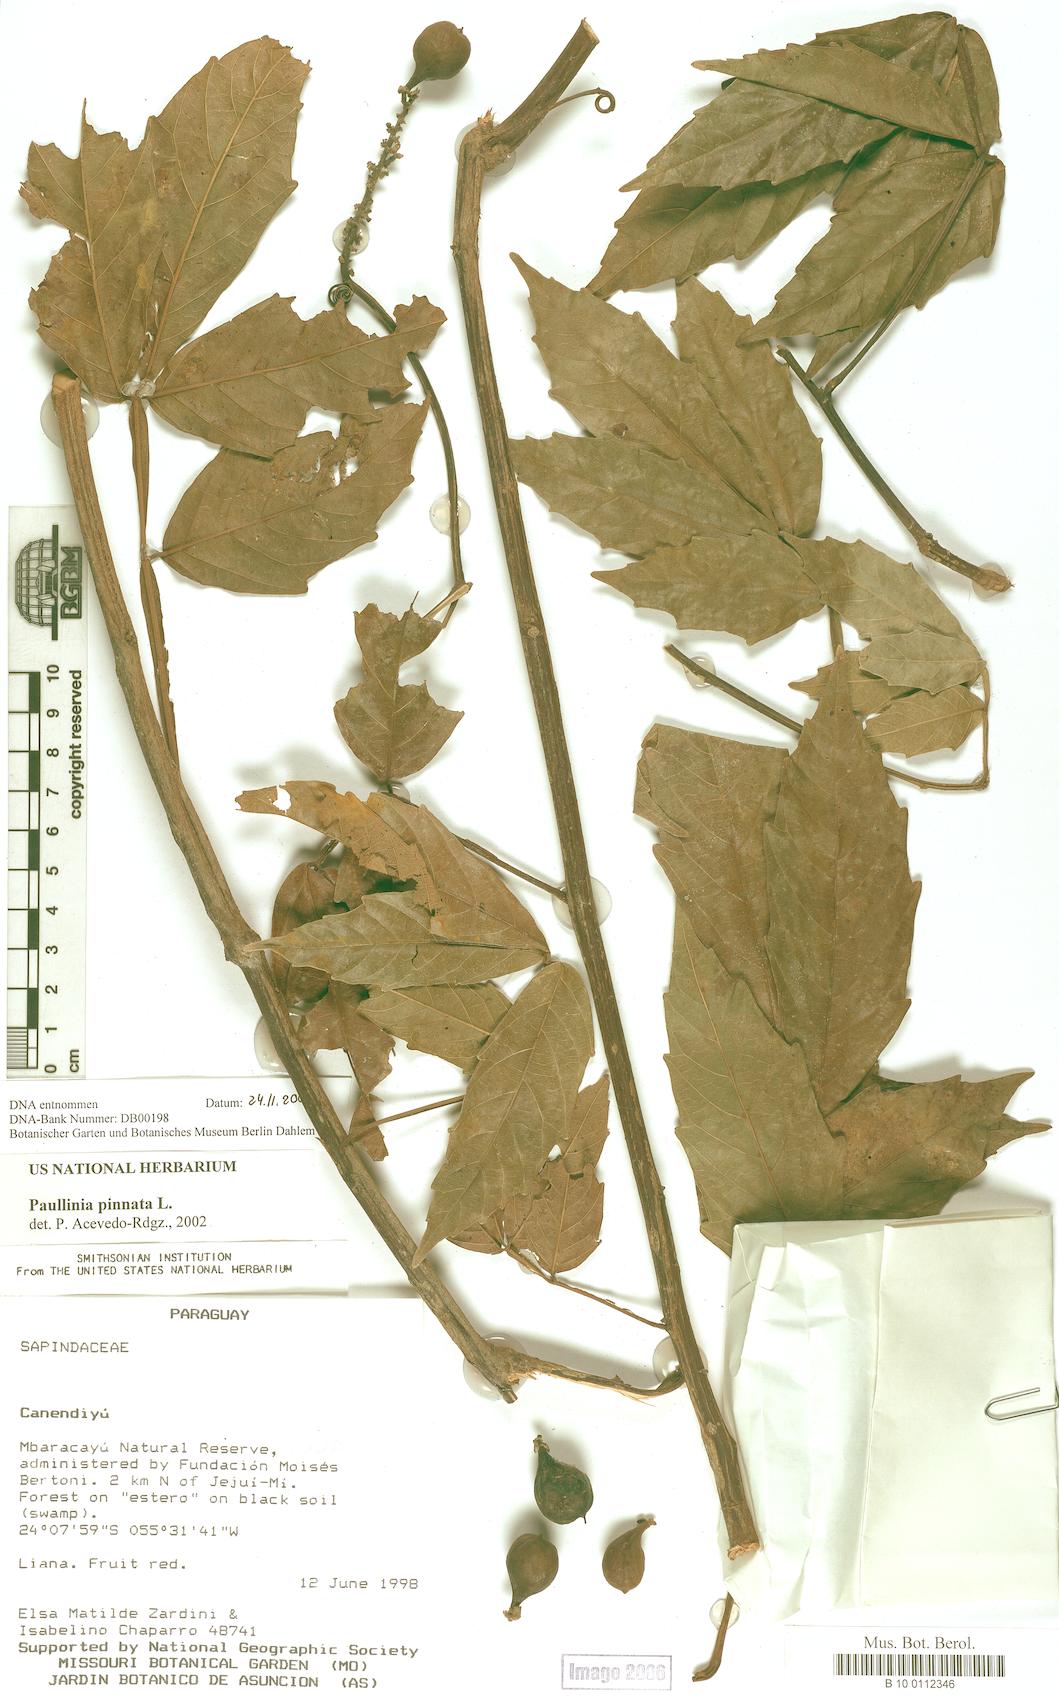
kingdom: Plantae
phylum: Tracheophyta
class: Magnoliopsida
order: Sapindales
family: Sapindaceae
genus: Paullinia
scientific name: Paullinia pinnata
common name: Barbasco
